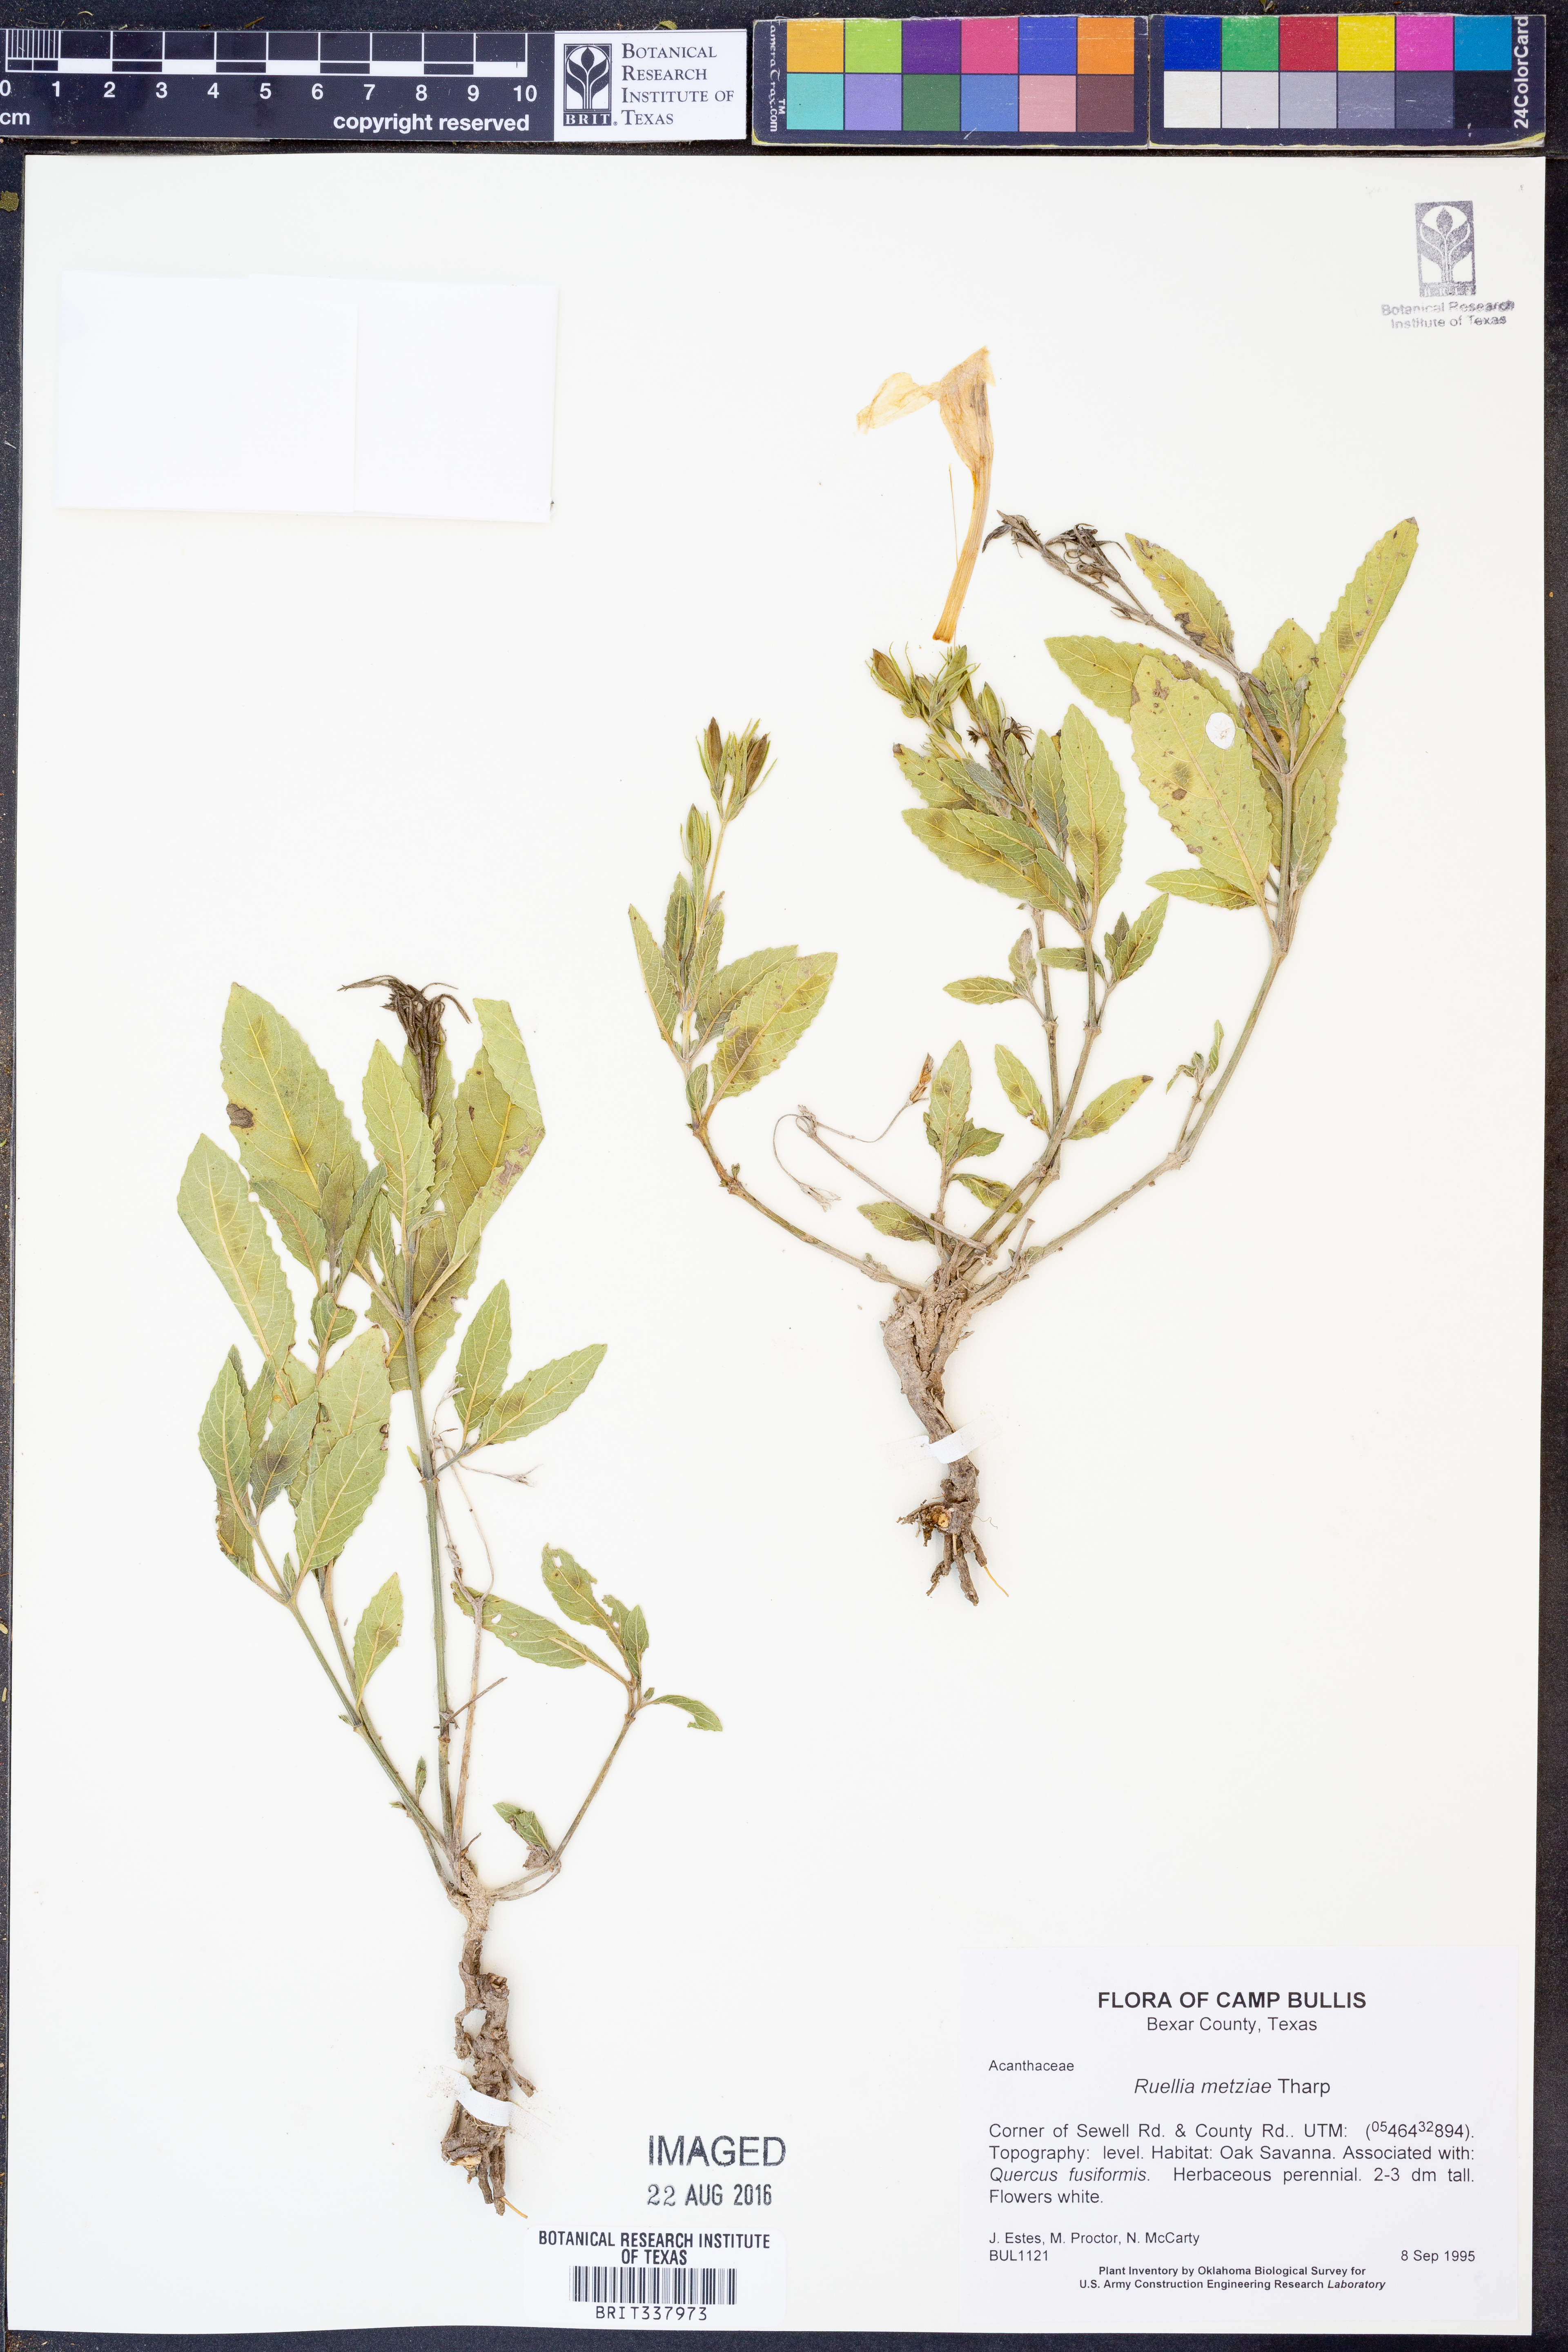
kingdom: Plantae
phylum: Tracheophyta
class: Magnoliopsida
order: Lamiales
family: Acanthaceae
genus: Ruellia
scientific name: Ruellia metziae
